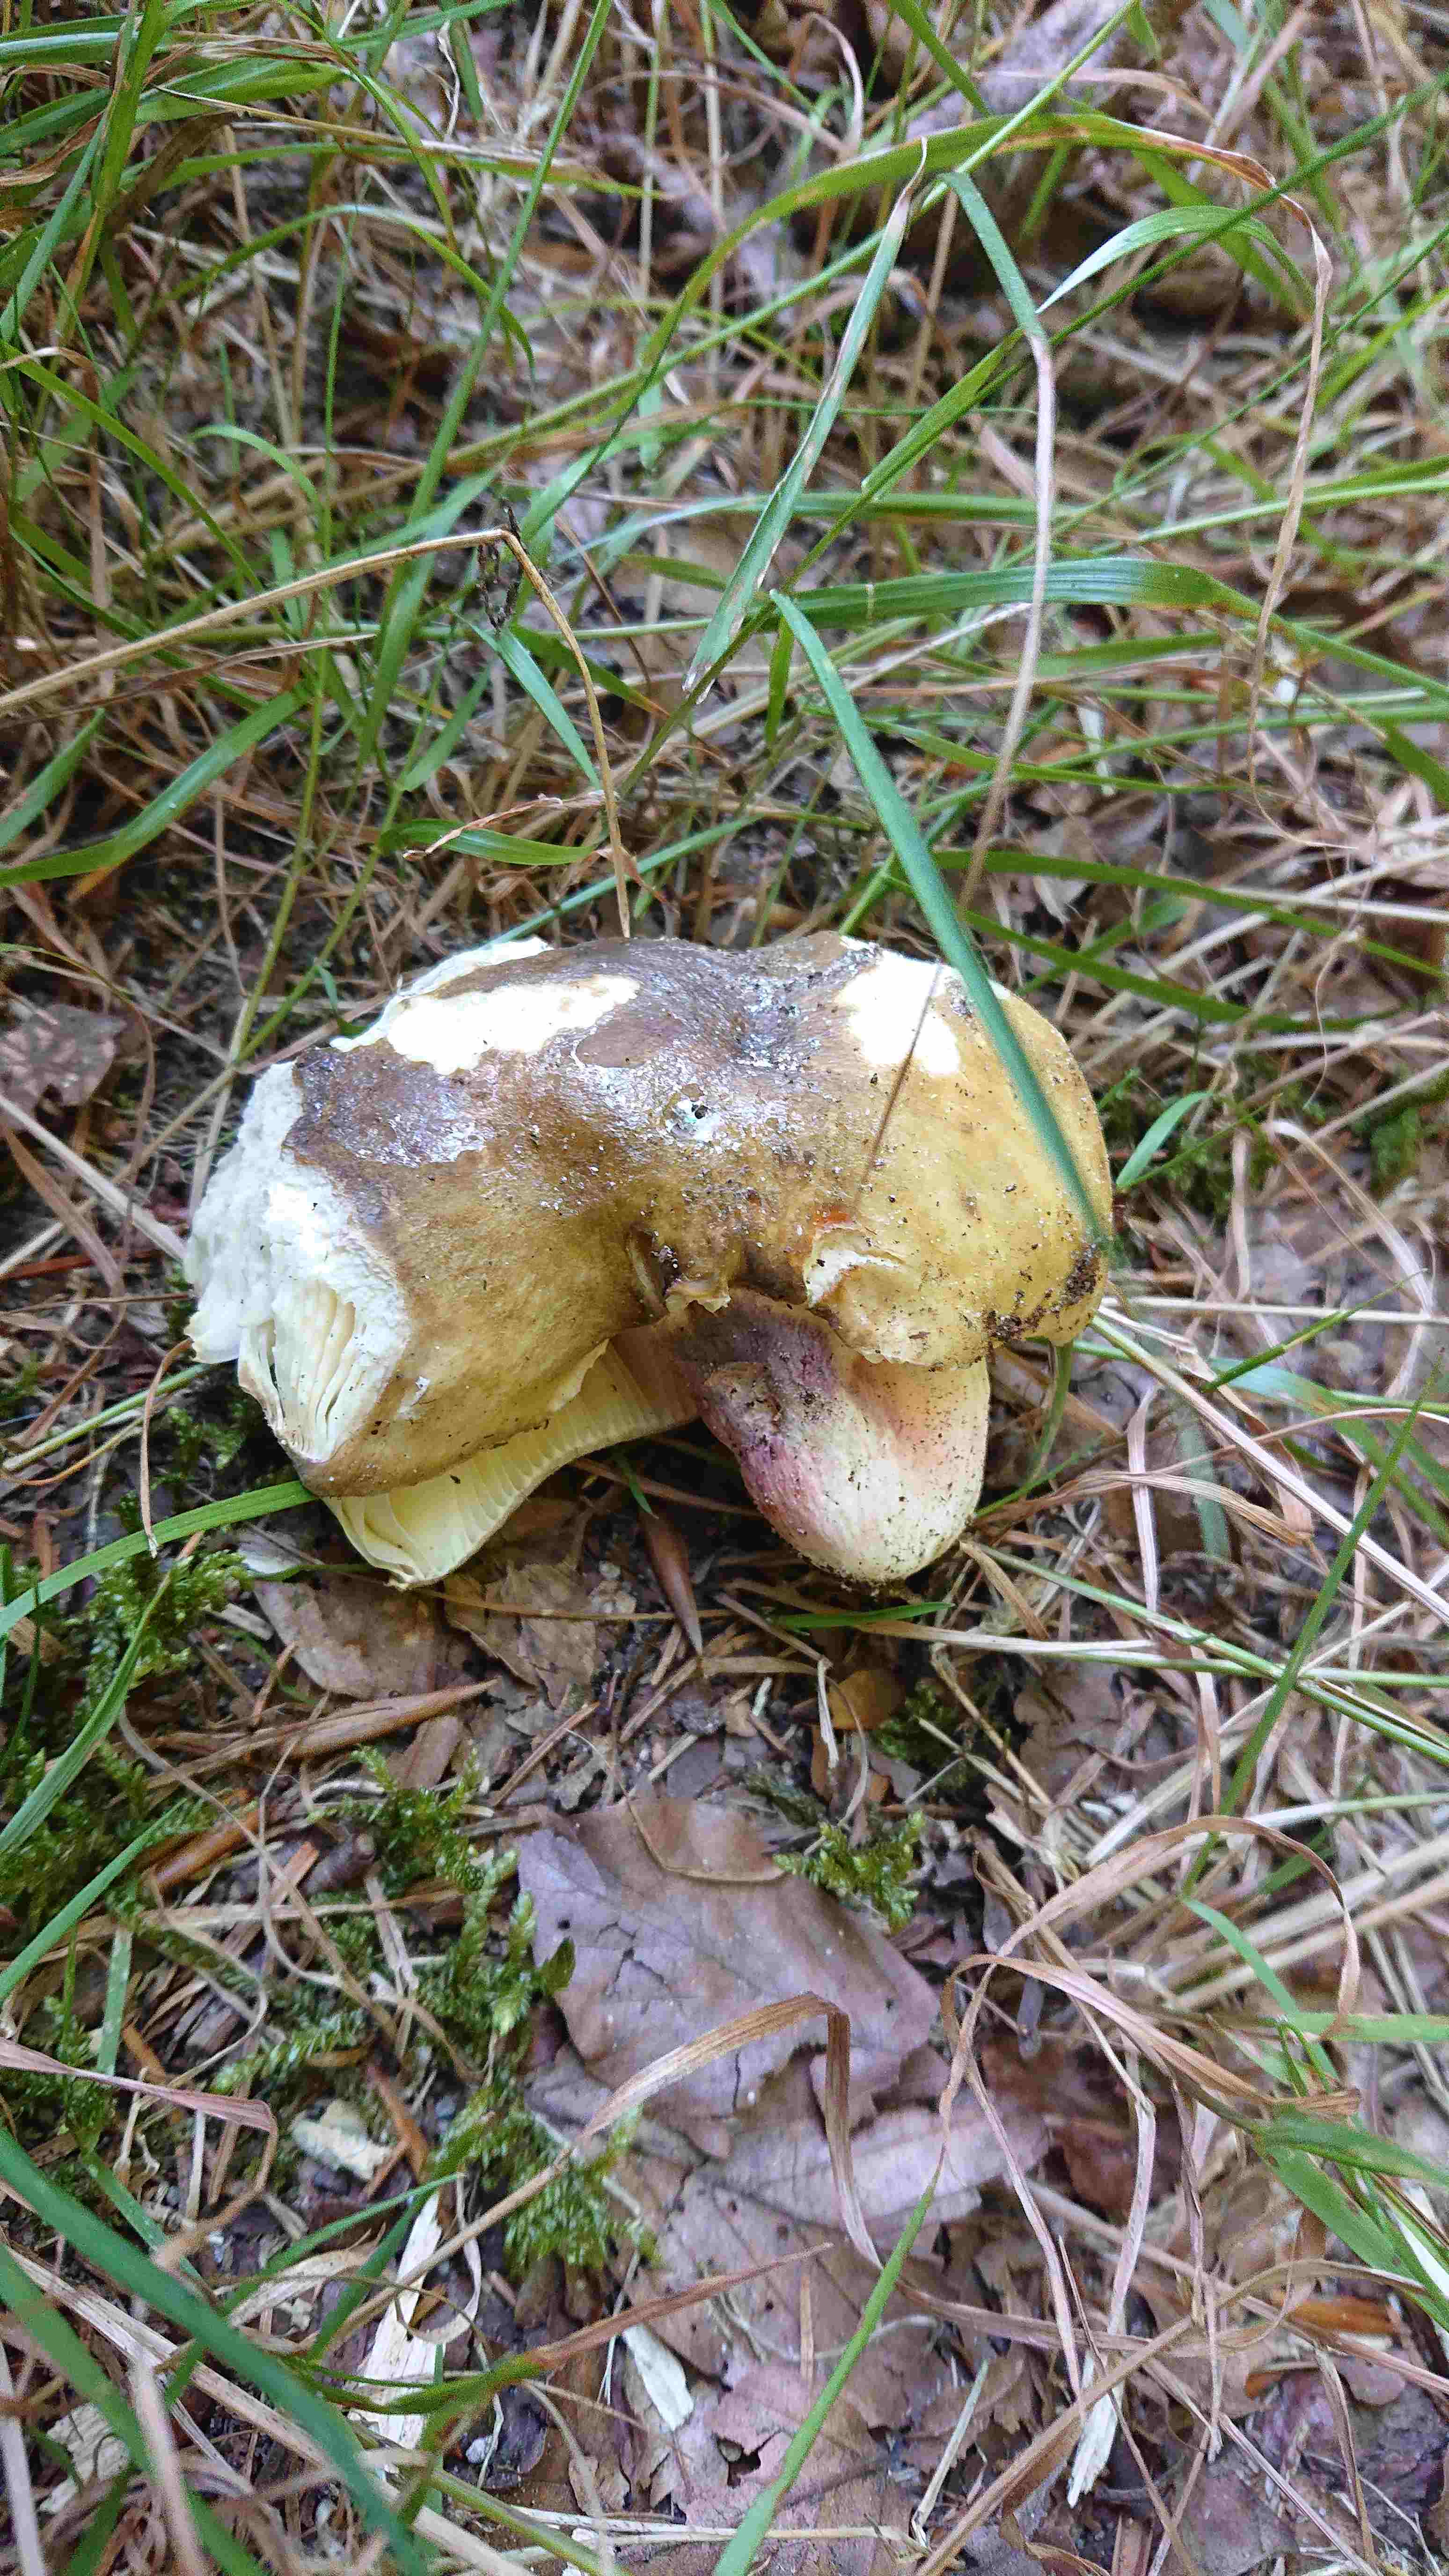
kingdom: Fungi
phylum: Basidiomycota
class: Agaricomycetes
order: Russulales
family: Russulaceae
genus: Russula
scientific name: Russula violeipes
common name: ferskengul skørhat
